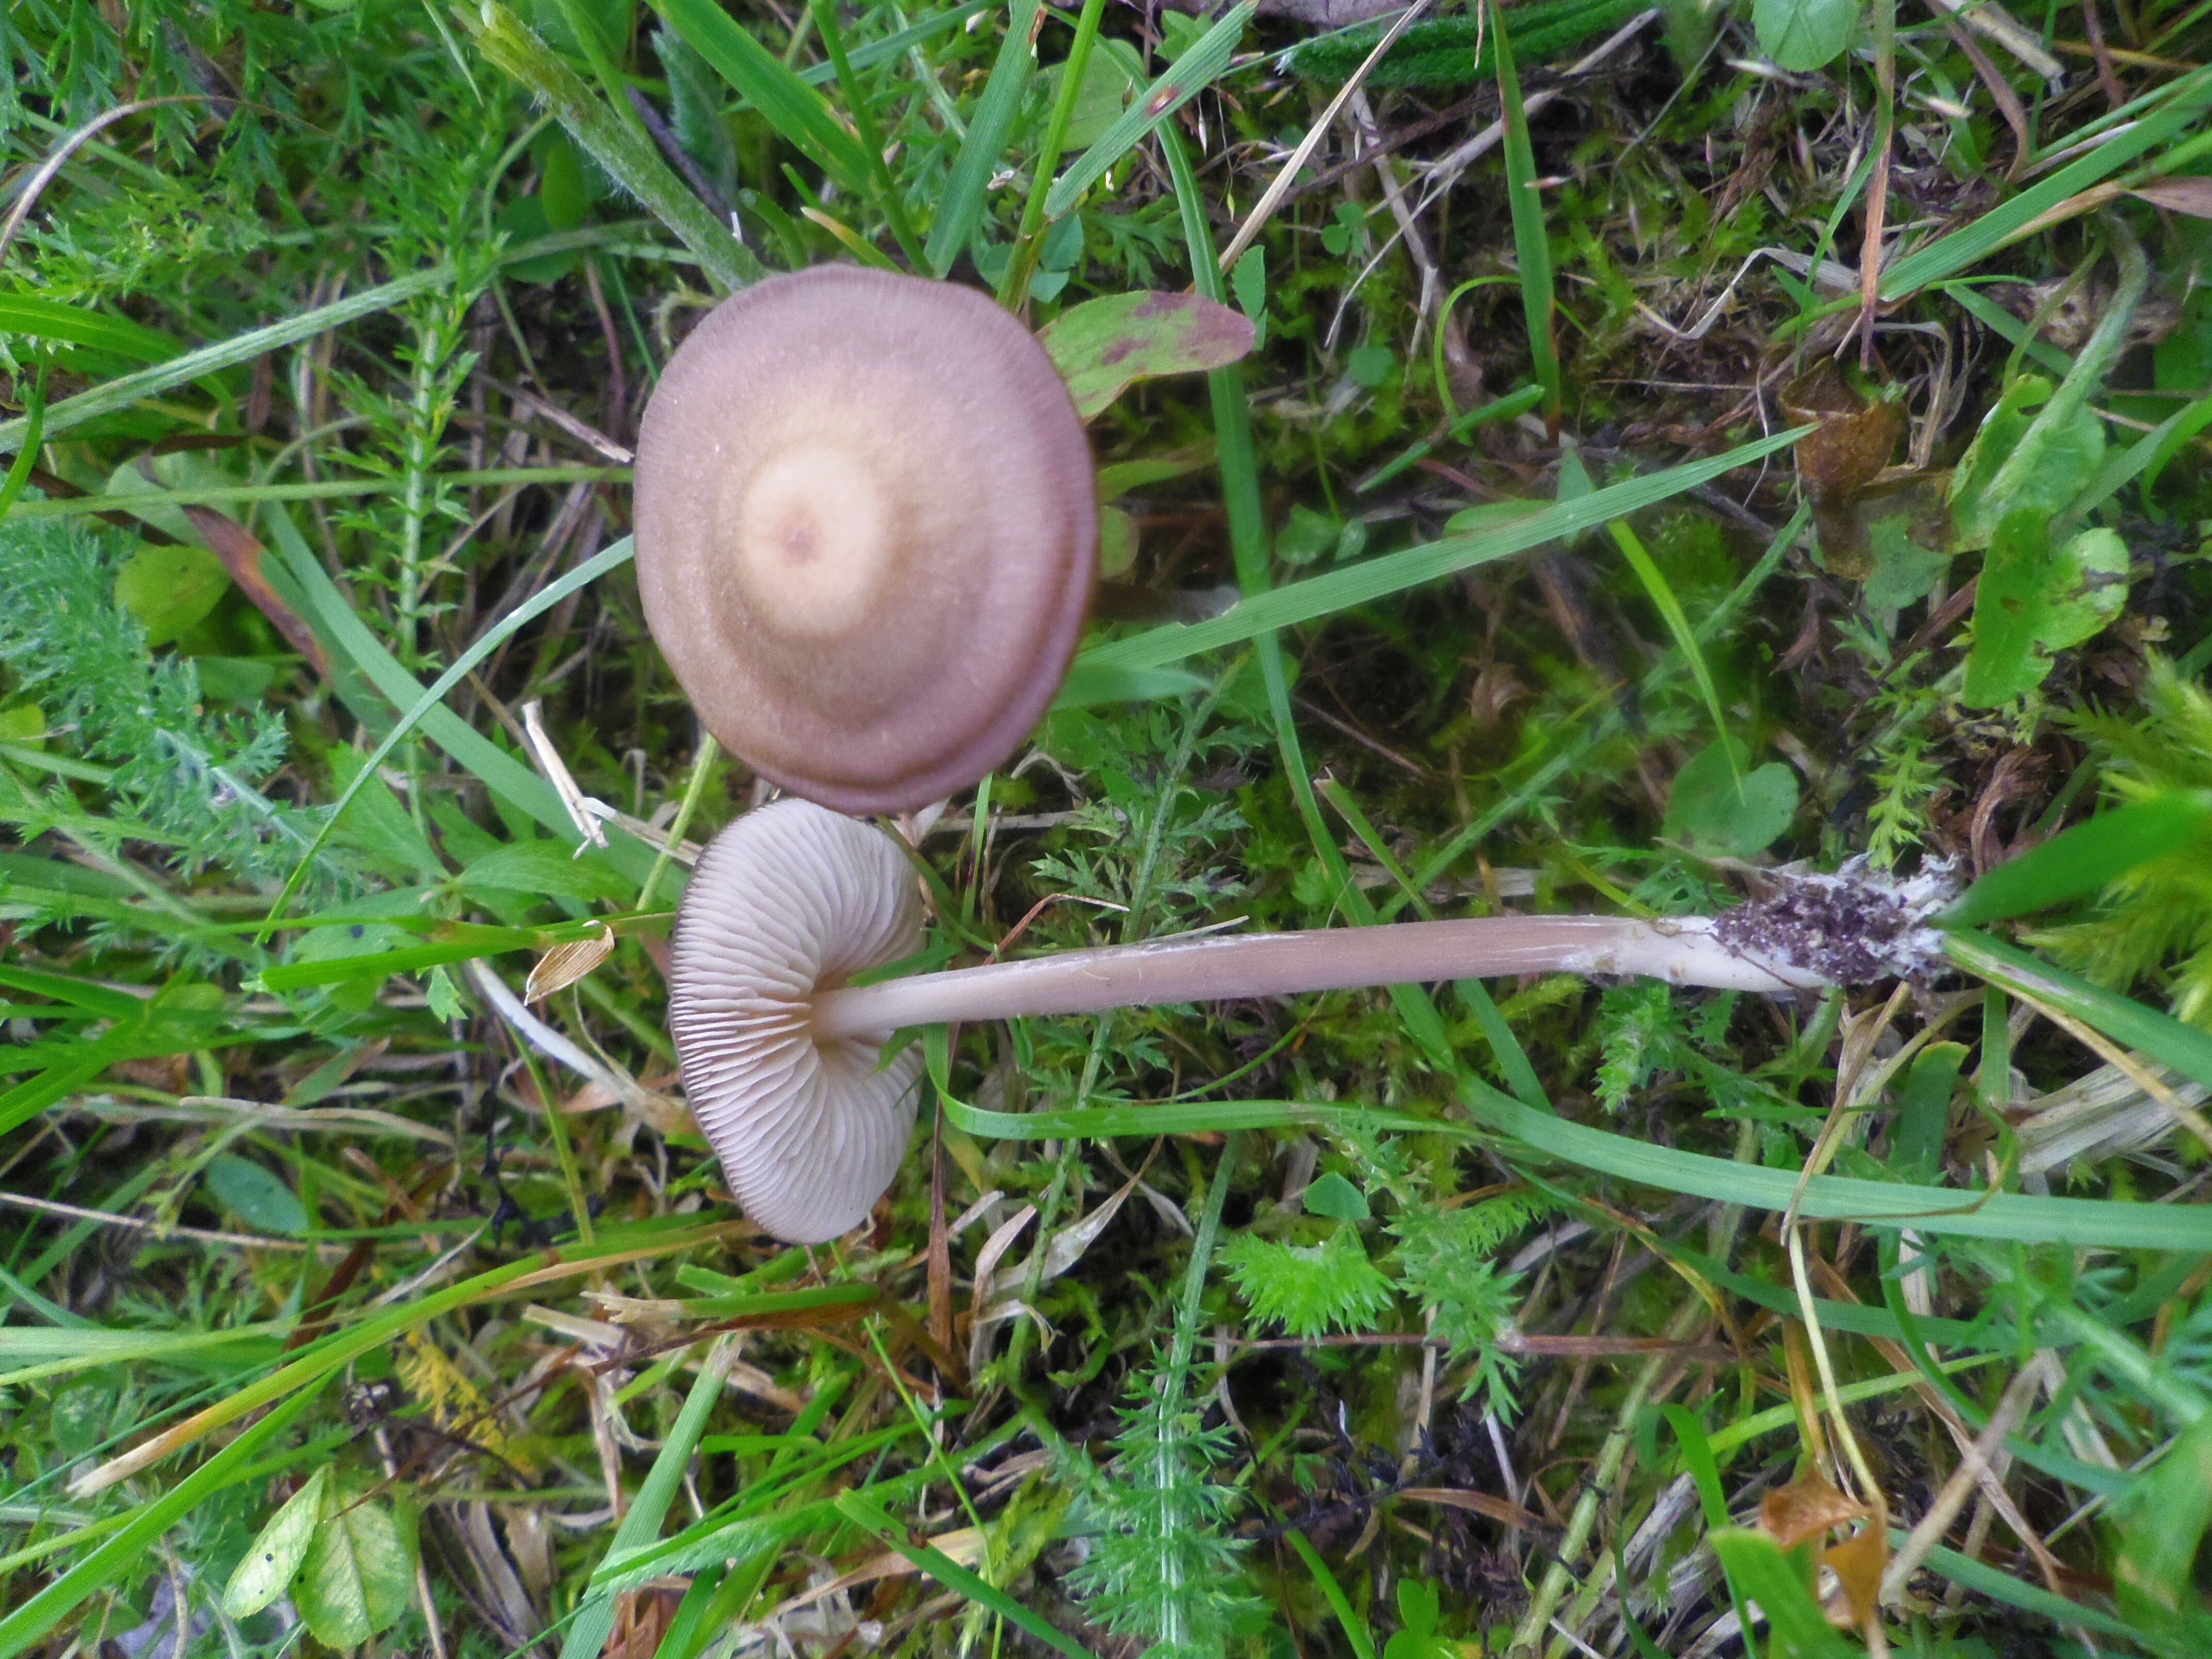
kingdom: Fungi
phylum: Basidiomycota
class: Agaricomycetes
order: Agaricales
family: Entolomataceae
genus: Entoloma
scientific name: Entoloma
